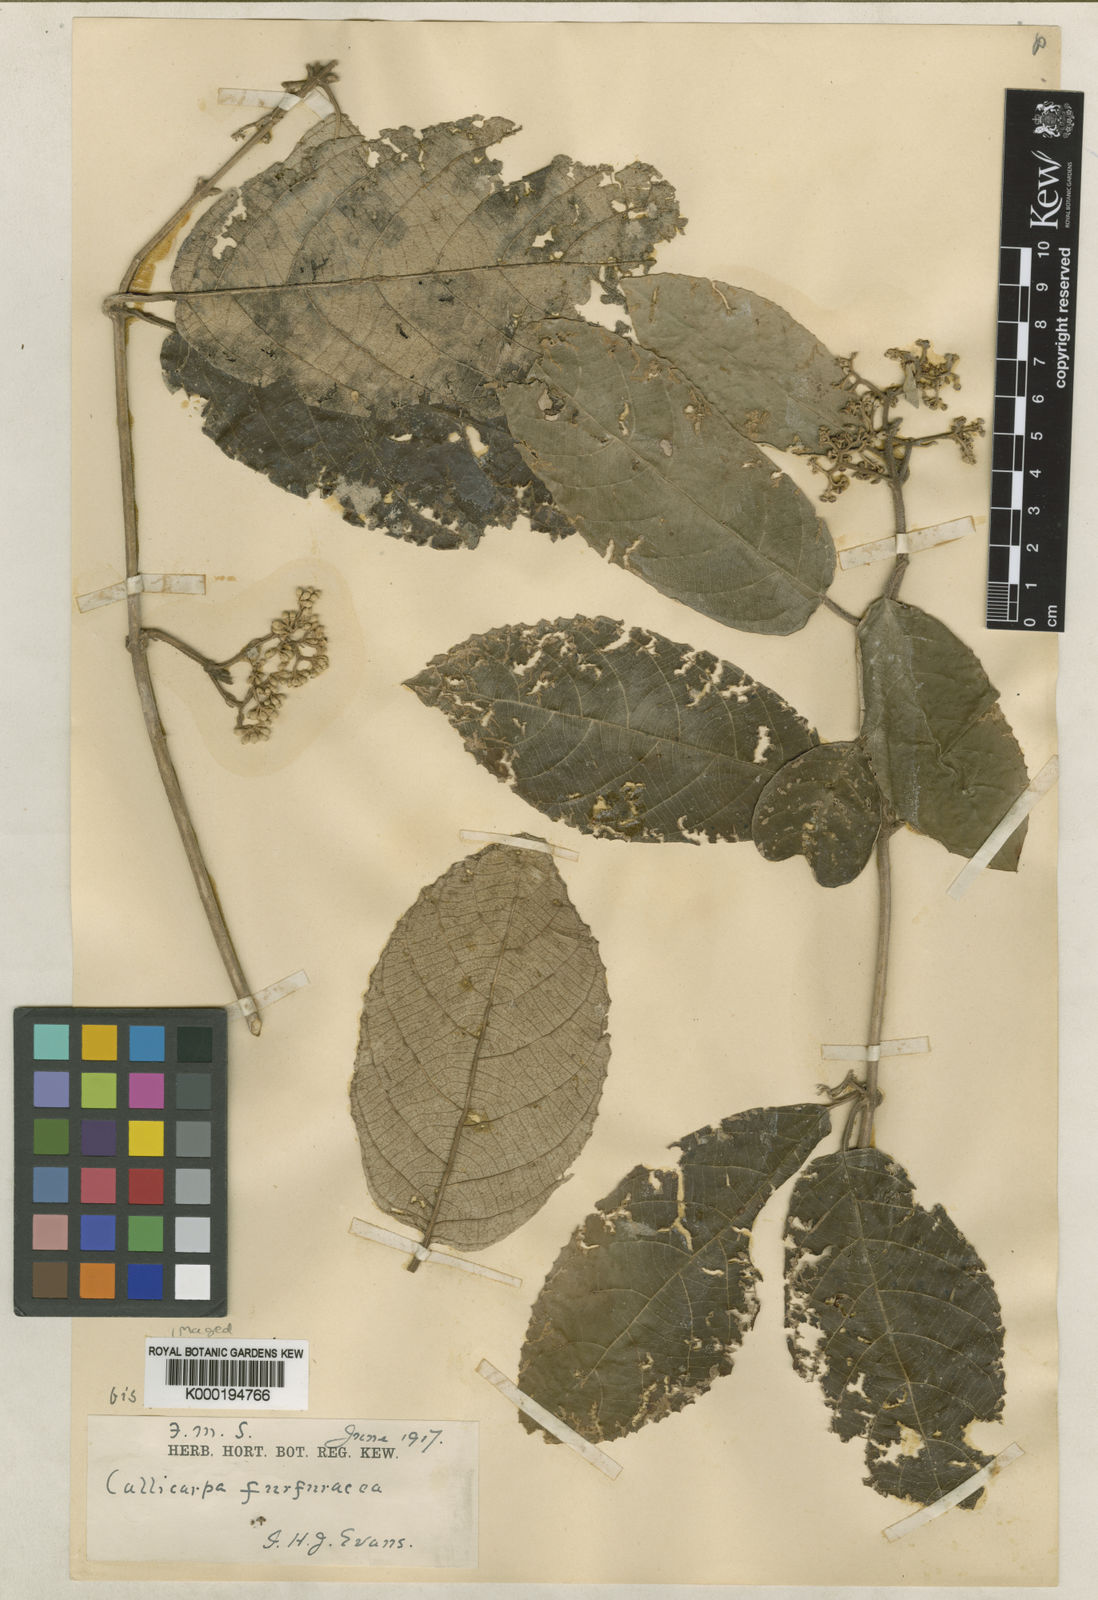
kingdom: Plantae
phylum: Tracheophyta
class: Magnoliopsida
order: Lamiales
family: Lamiaceae
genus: Callicarpa
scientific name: Callicarpa furfuracea
